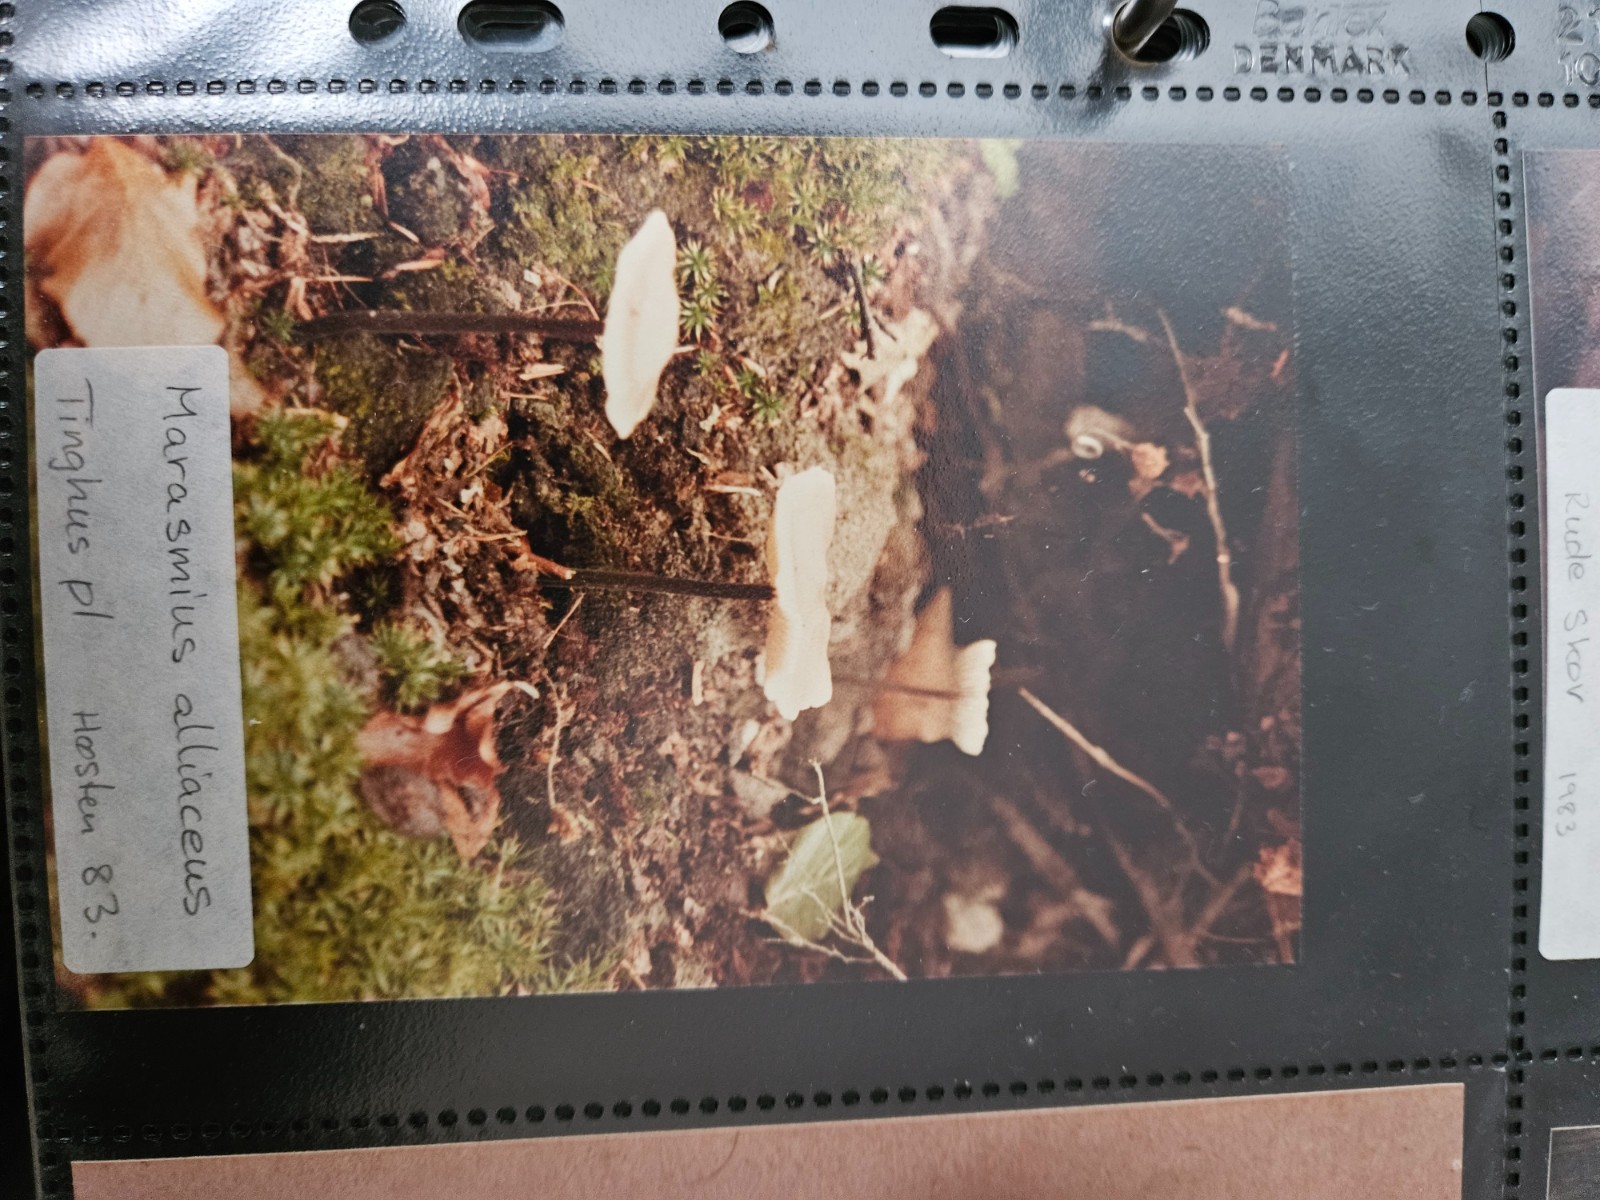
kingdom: Fungi
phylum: Basidiomycota
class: Agaricomycetes
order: Agaricales
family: Omphalotaceae
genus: Mycetinis
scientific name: Mycetinis alliaceus
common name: stor løghat
